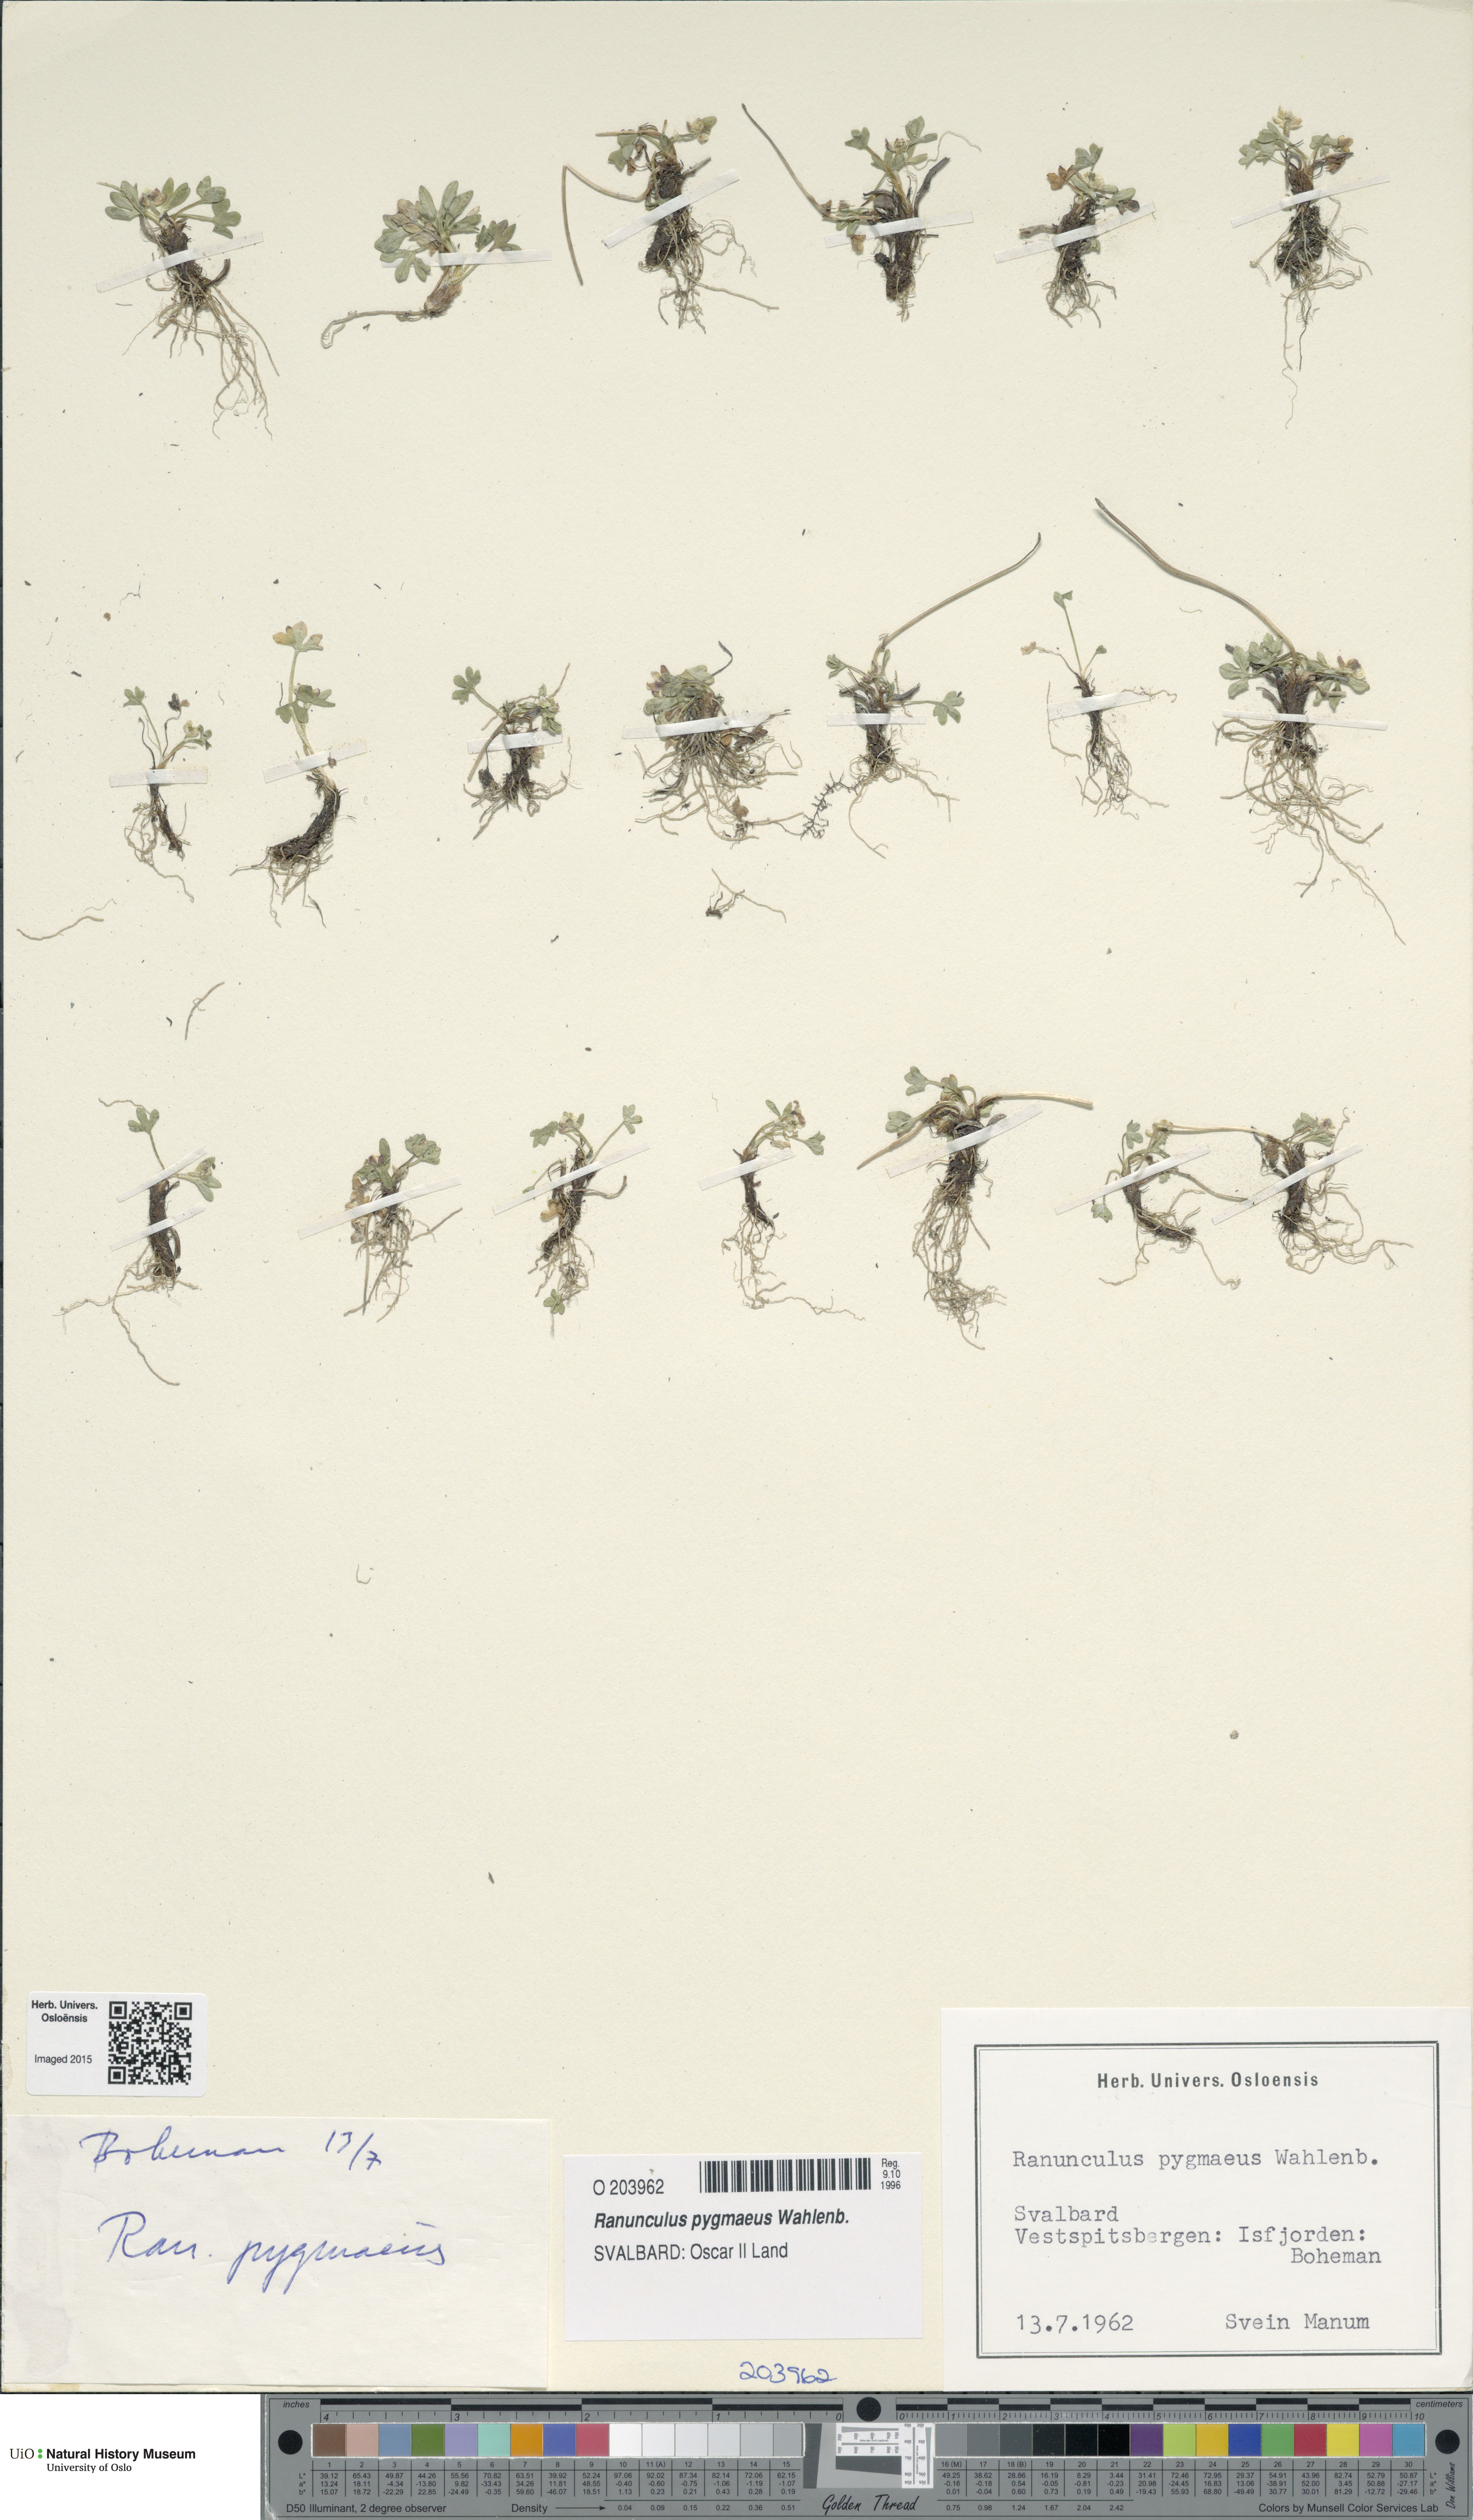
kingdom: Plantae
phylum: Tracheophyta
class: Magnoliopsida
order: Ranunculales
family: Ranunculaceae
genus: Ranunculus
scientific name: Ranunculus pygmaeus
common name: Dwarf buttercup
